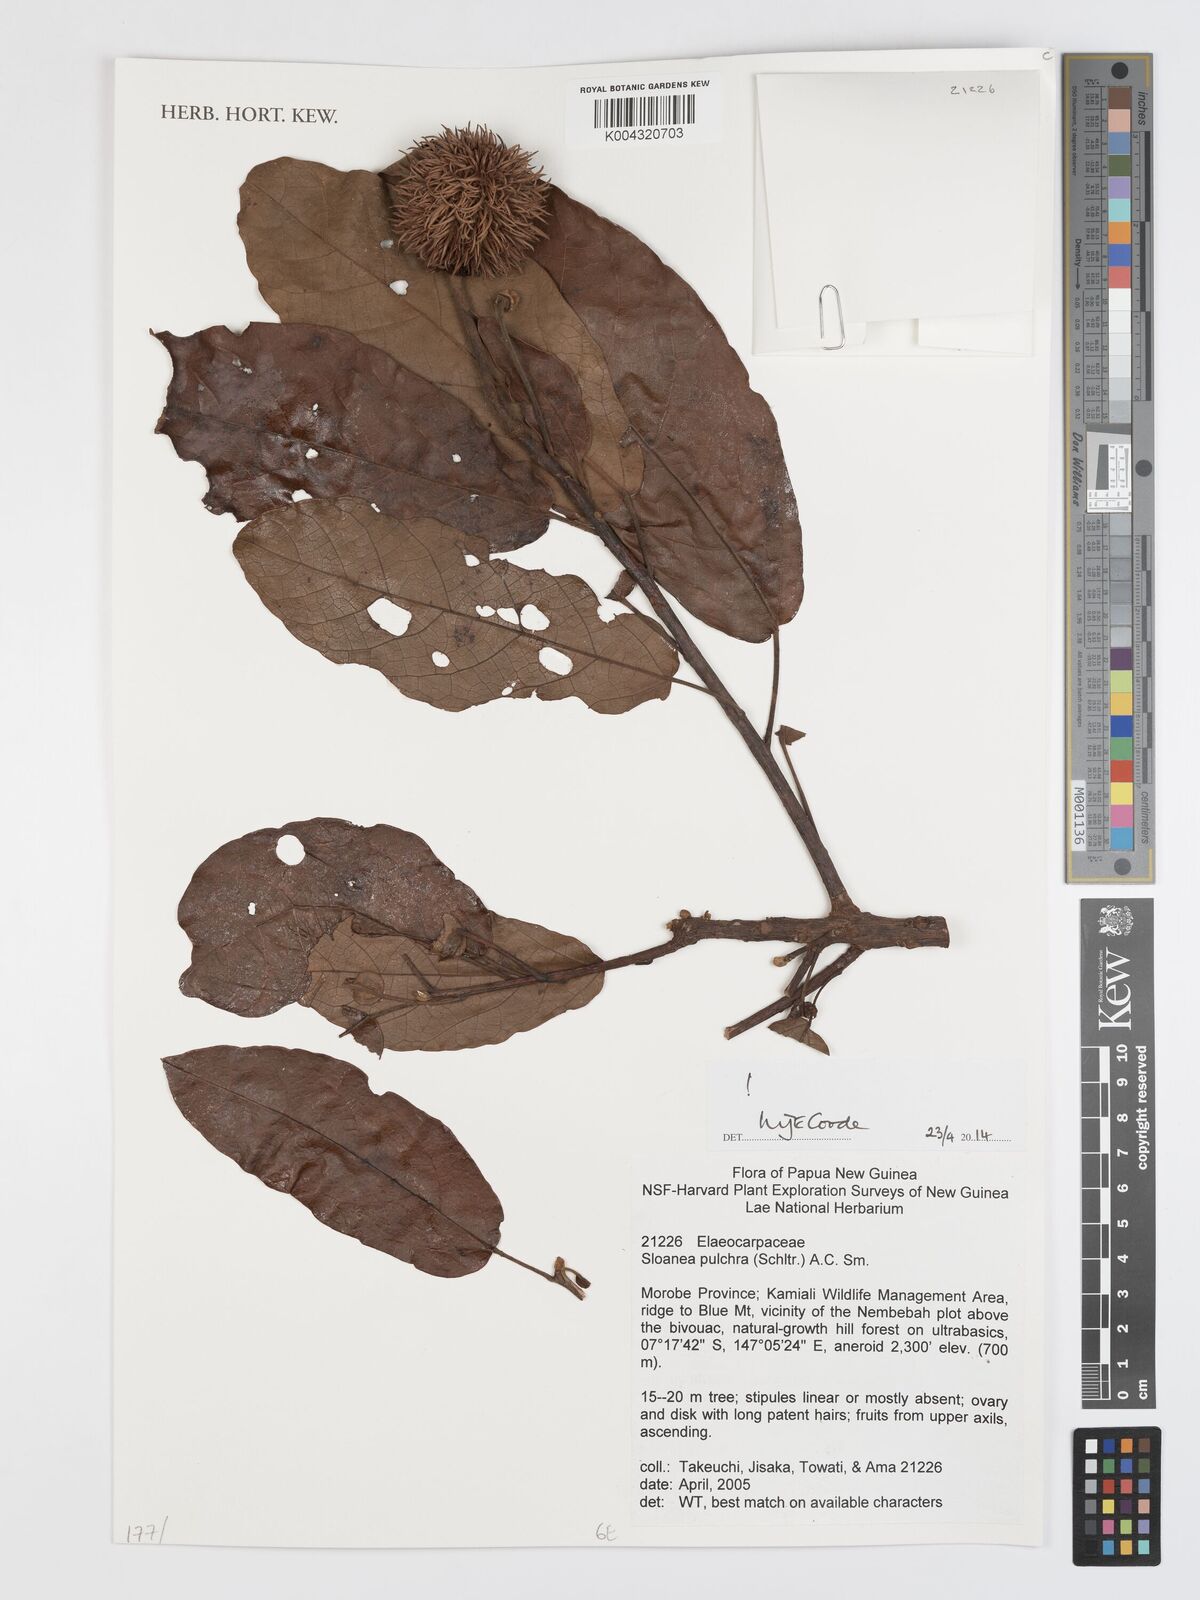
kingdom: Plantae
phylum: Tracheophyta
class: Magnoliopsida
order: Oxalidales
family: Elaeocarpaceae
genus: Sloanea
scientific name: Sloanea pulchra
